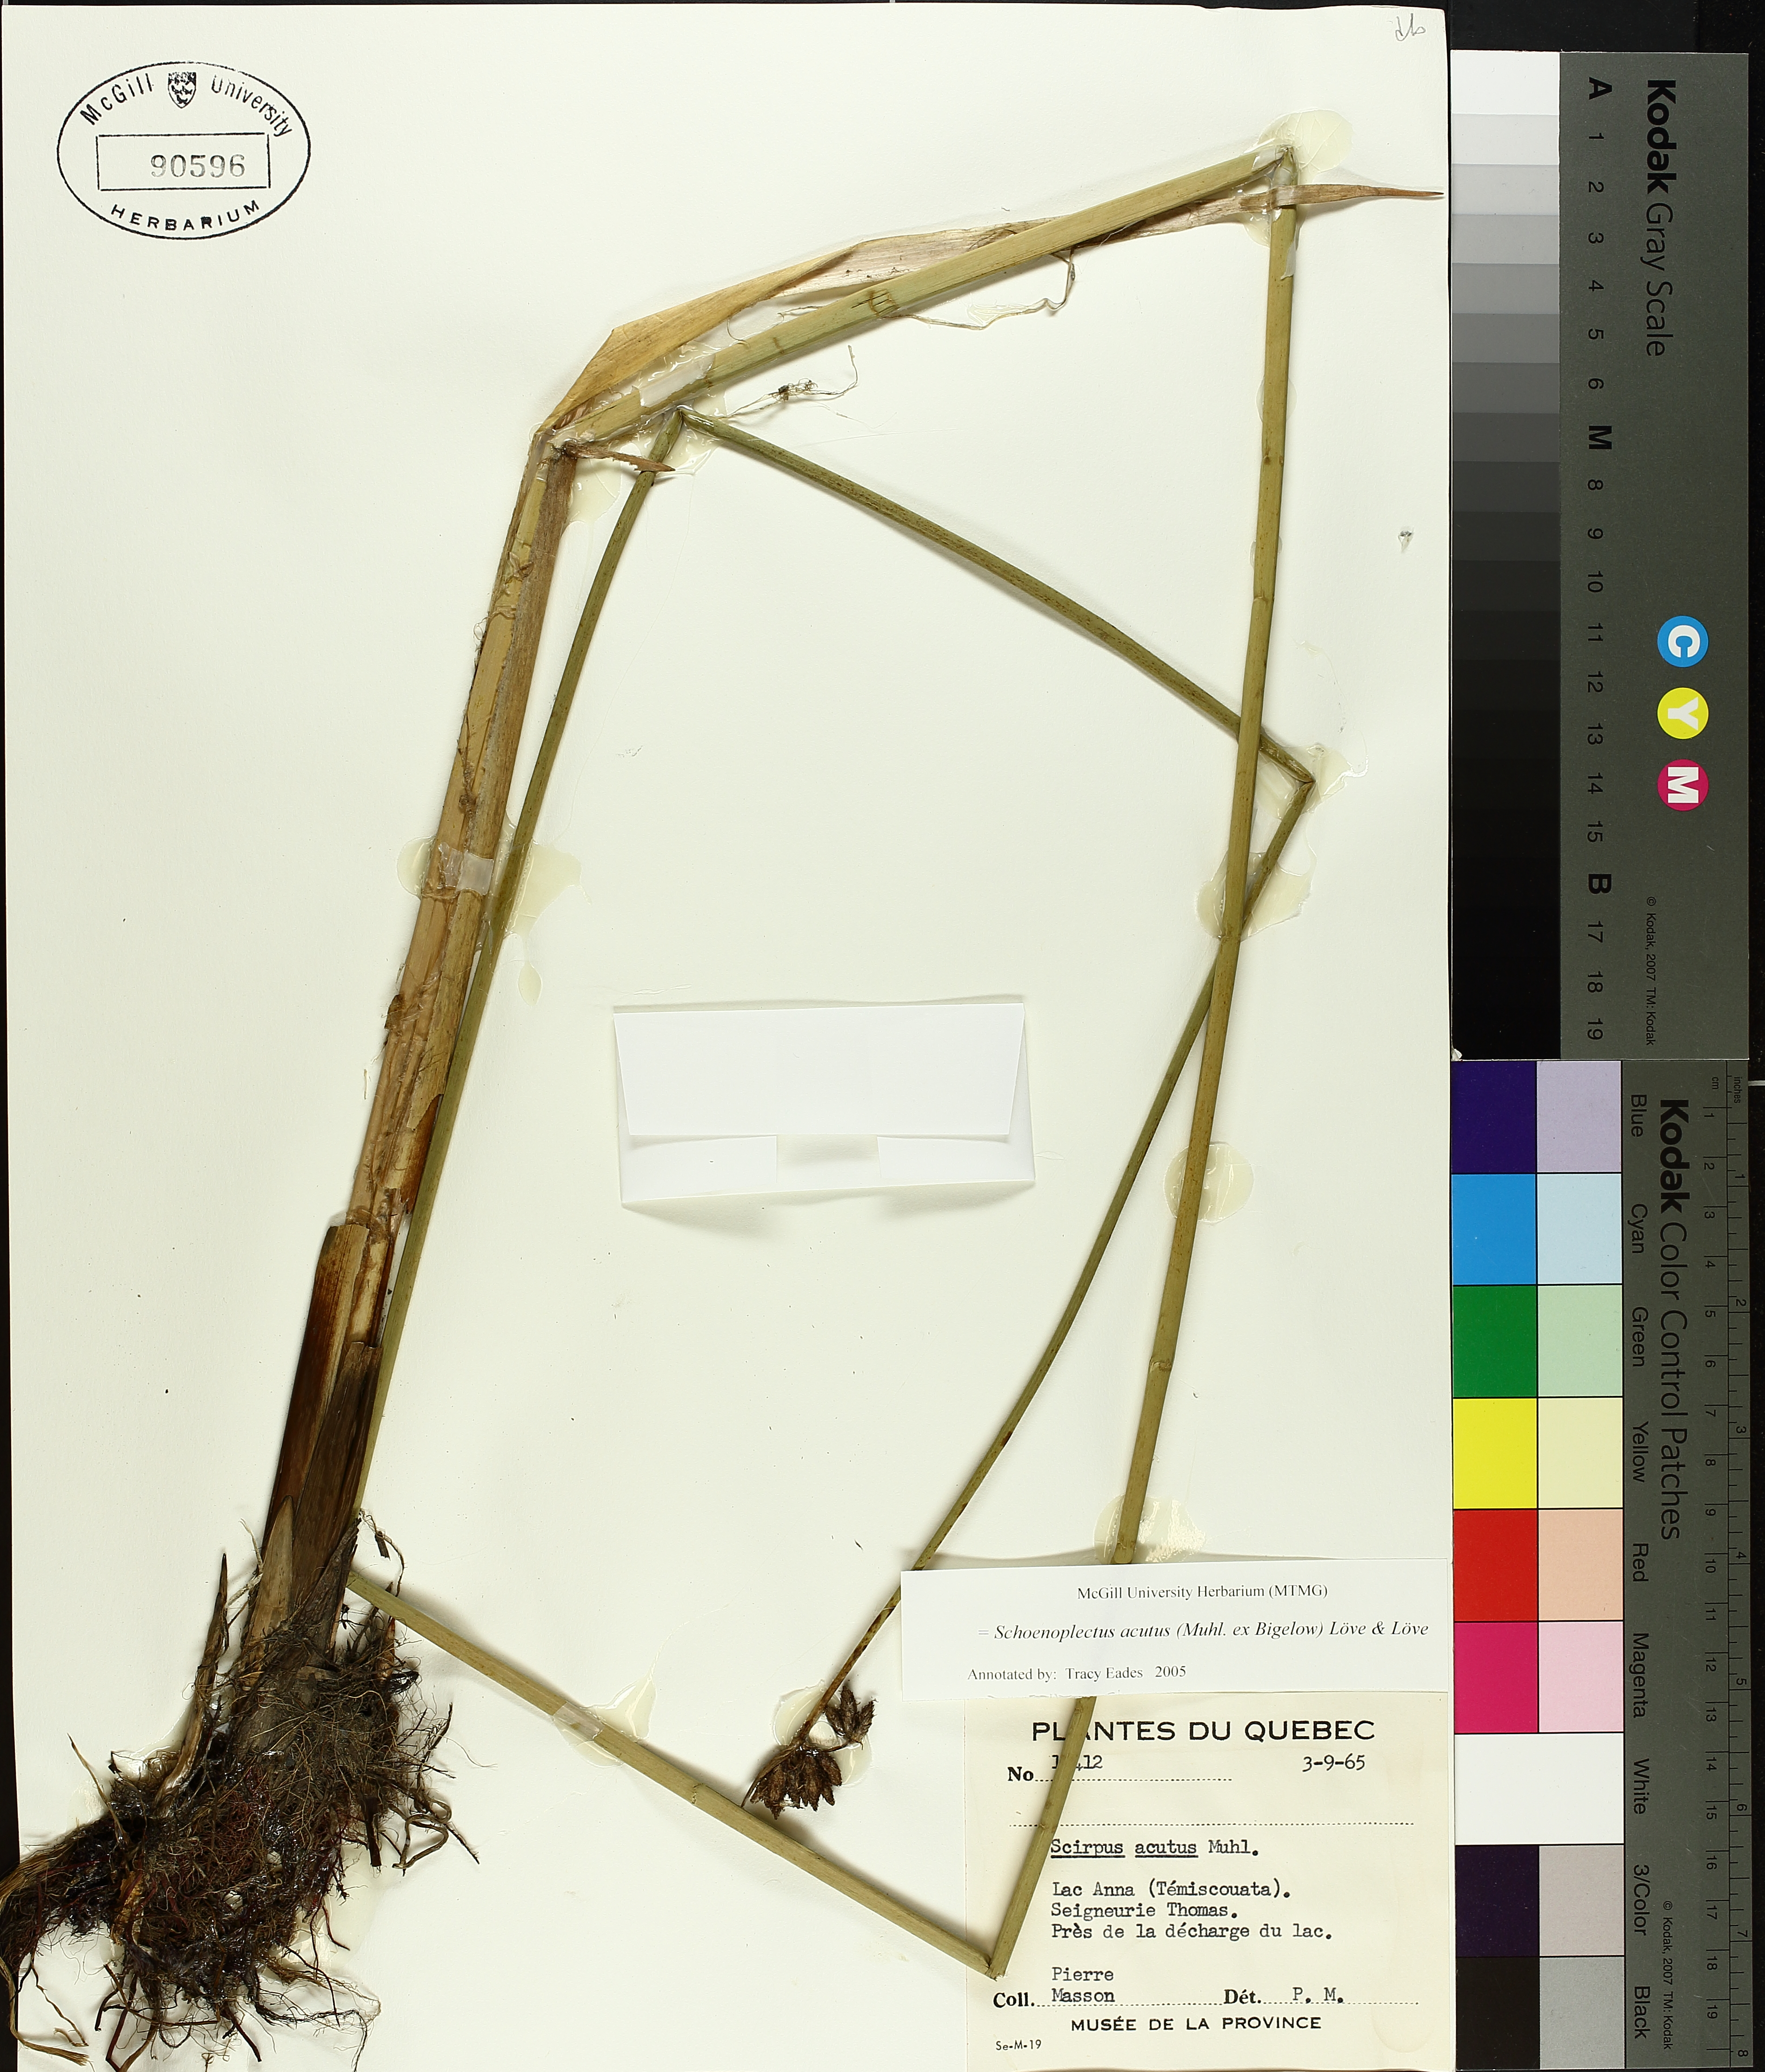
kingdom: Plantae
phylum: Tracheophyta
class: Liliopsida
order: Poales
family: Cyperaceae
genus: Schoenoplectus
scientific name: Schoenoplectus acutus
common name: Hardstem bulrush
